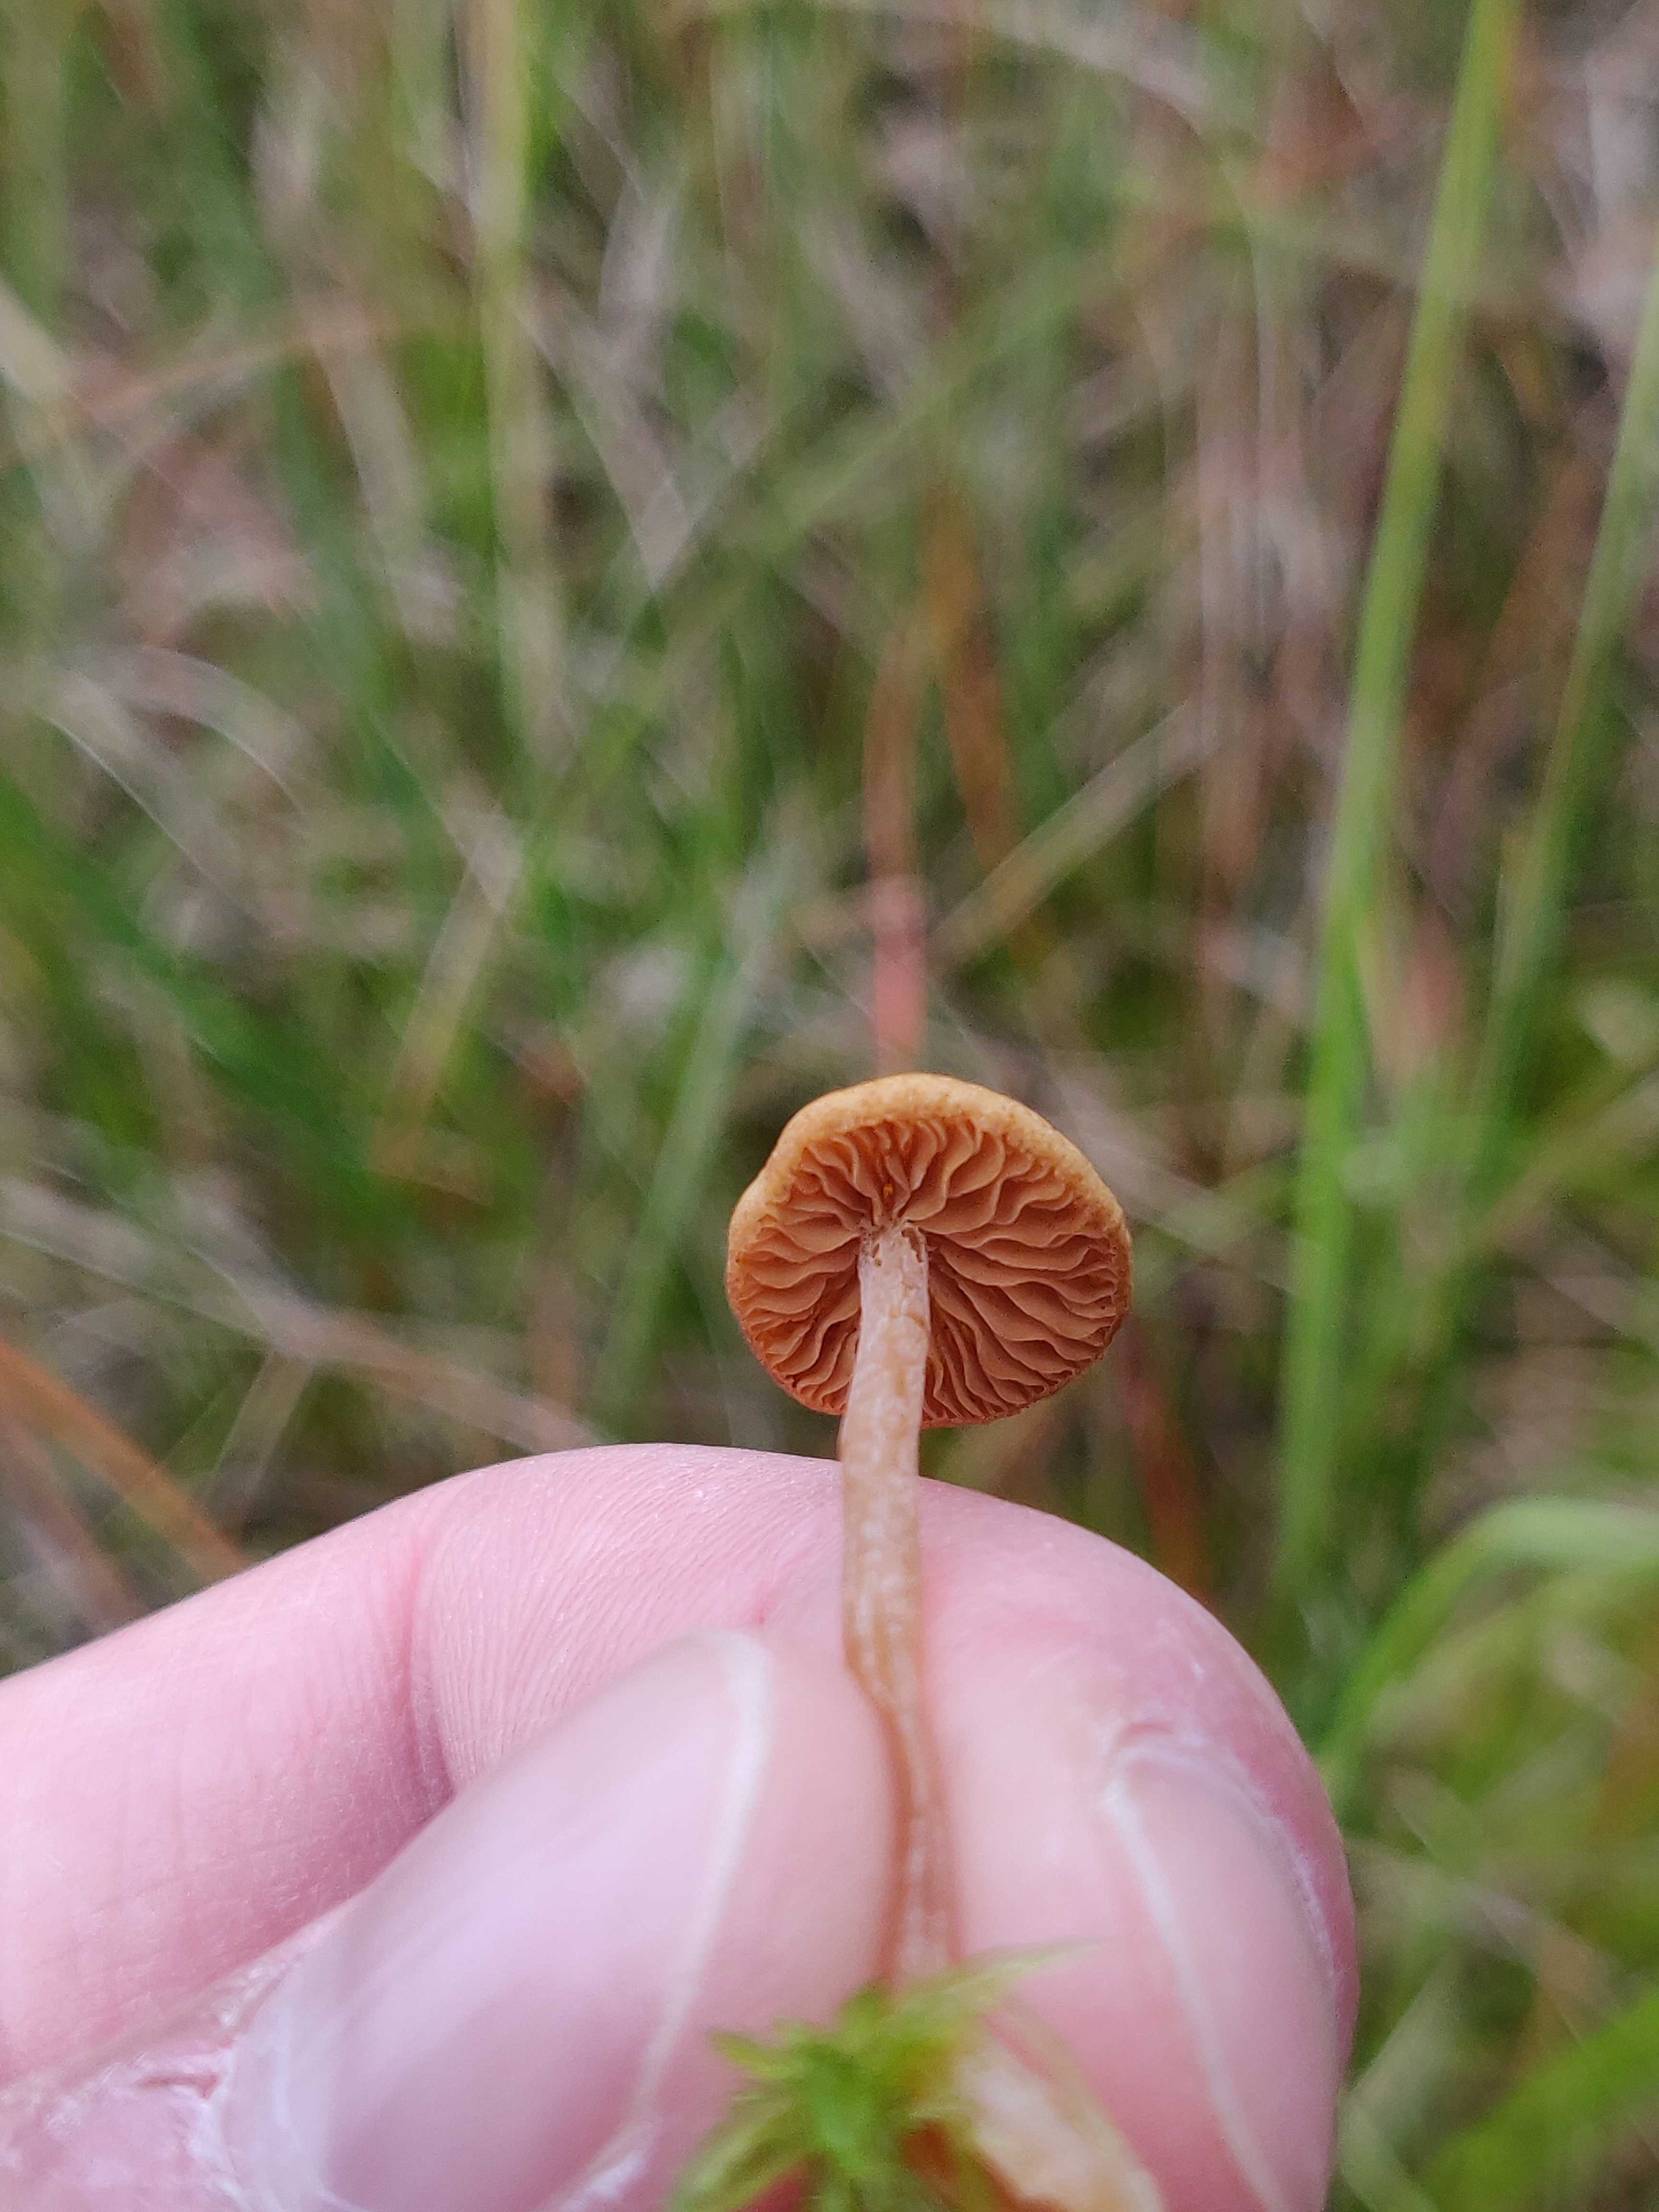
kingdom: Fungi
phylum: Basidiomycota
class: Agaricomycetes
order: Agaricales
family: Hymenogastraceae
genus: Galerina
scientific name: Galerina hybrida
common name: hængesæk-hjelmhat
